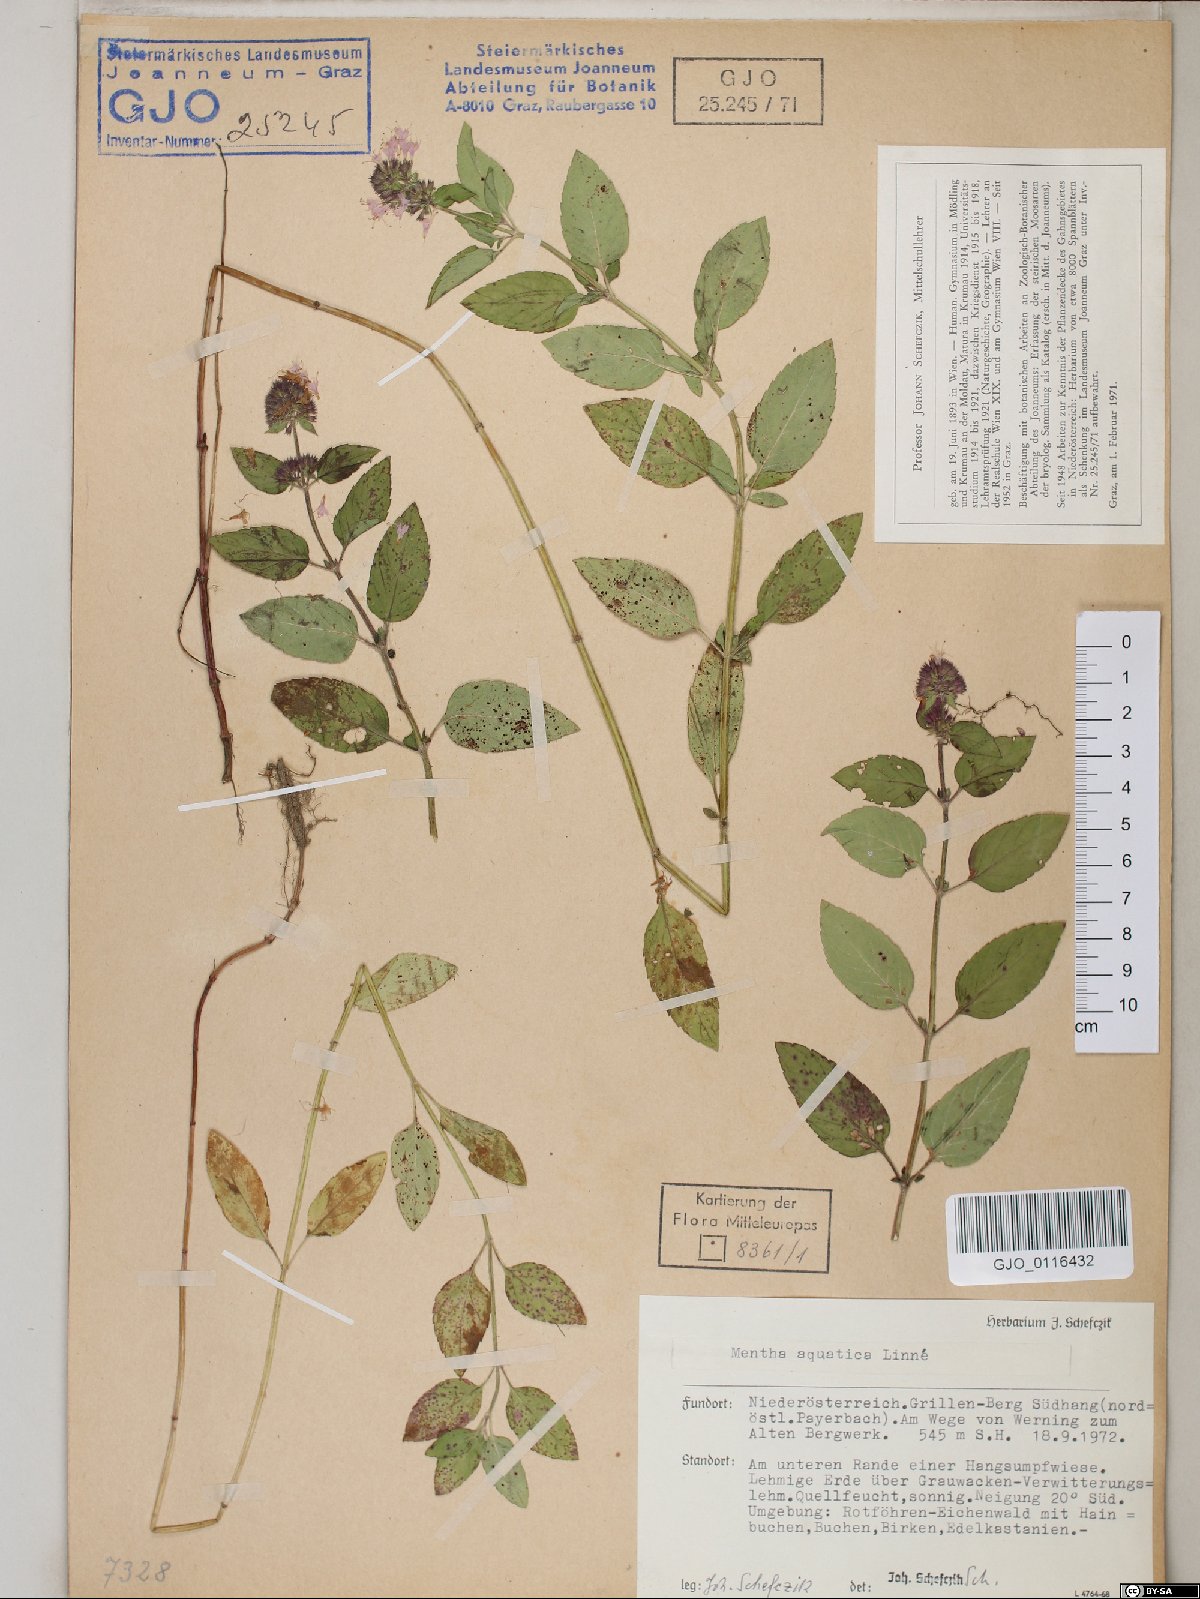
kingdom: Plantae
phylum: Tracheophyta
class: Magnoliopsida
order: Lamiales
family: Lamiaceae
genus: Mentha
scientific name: Mentha aquatica
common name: Water mint
